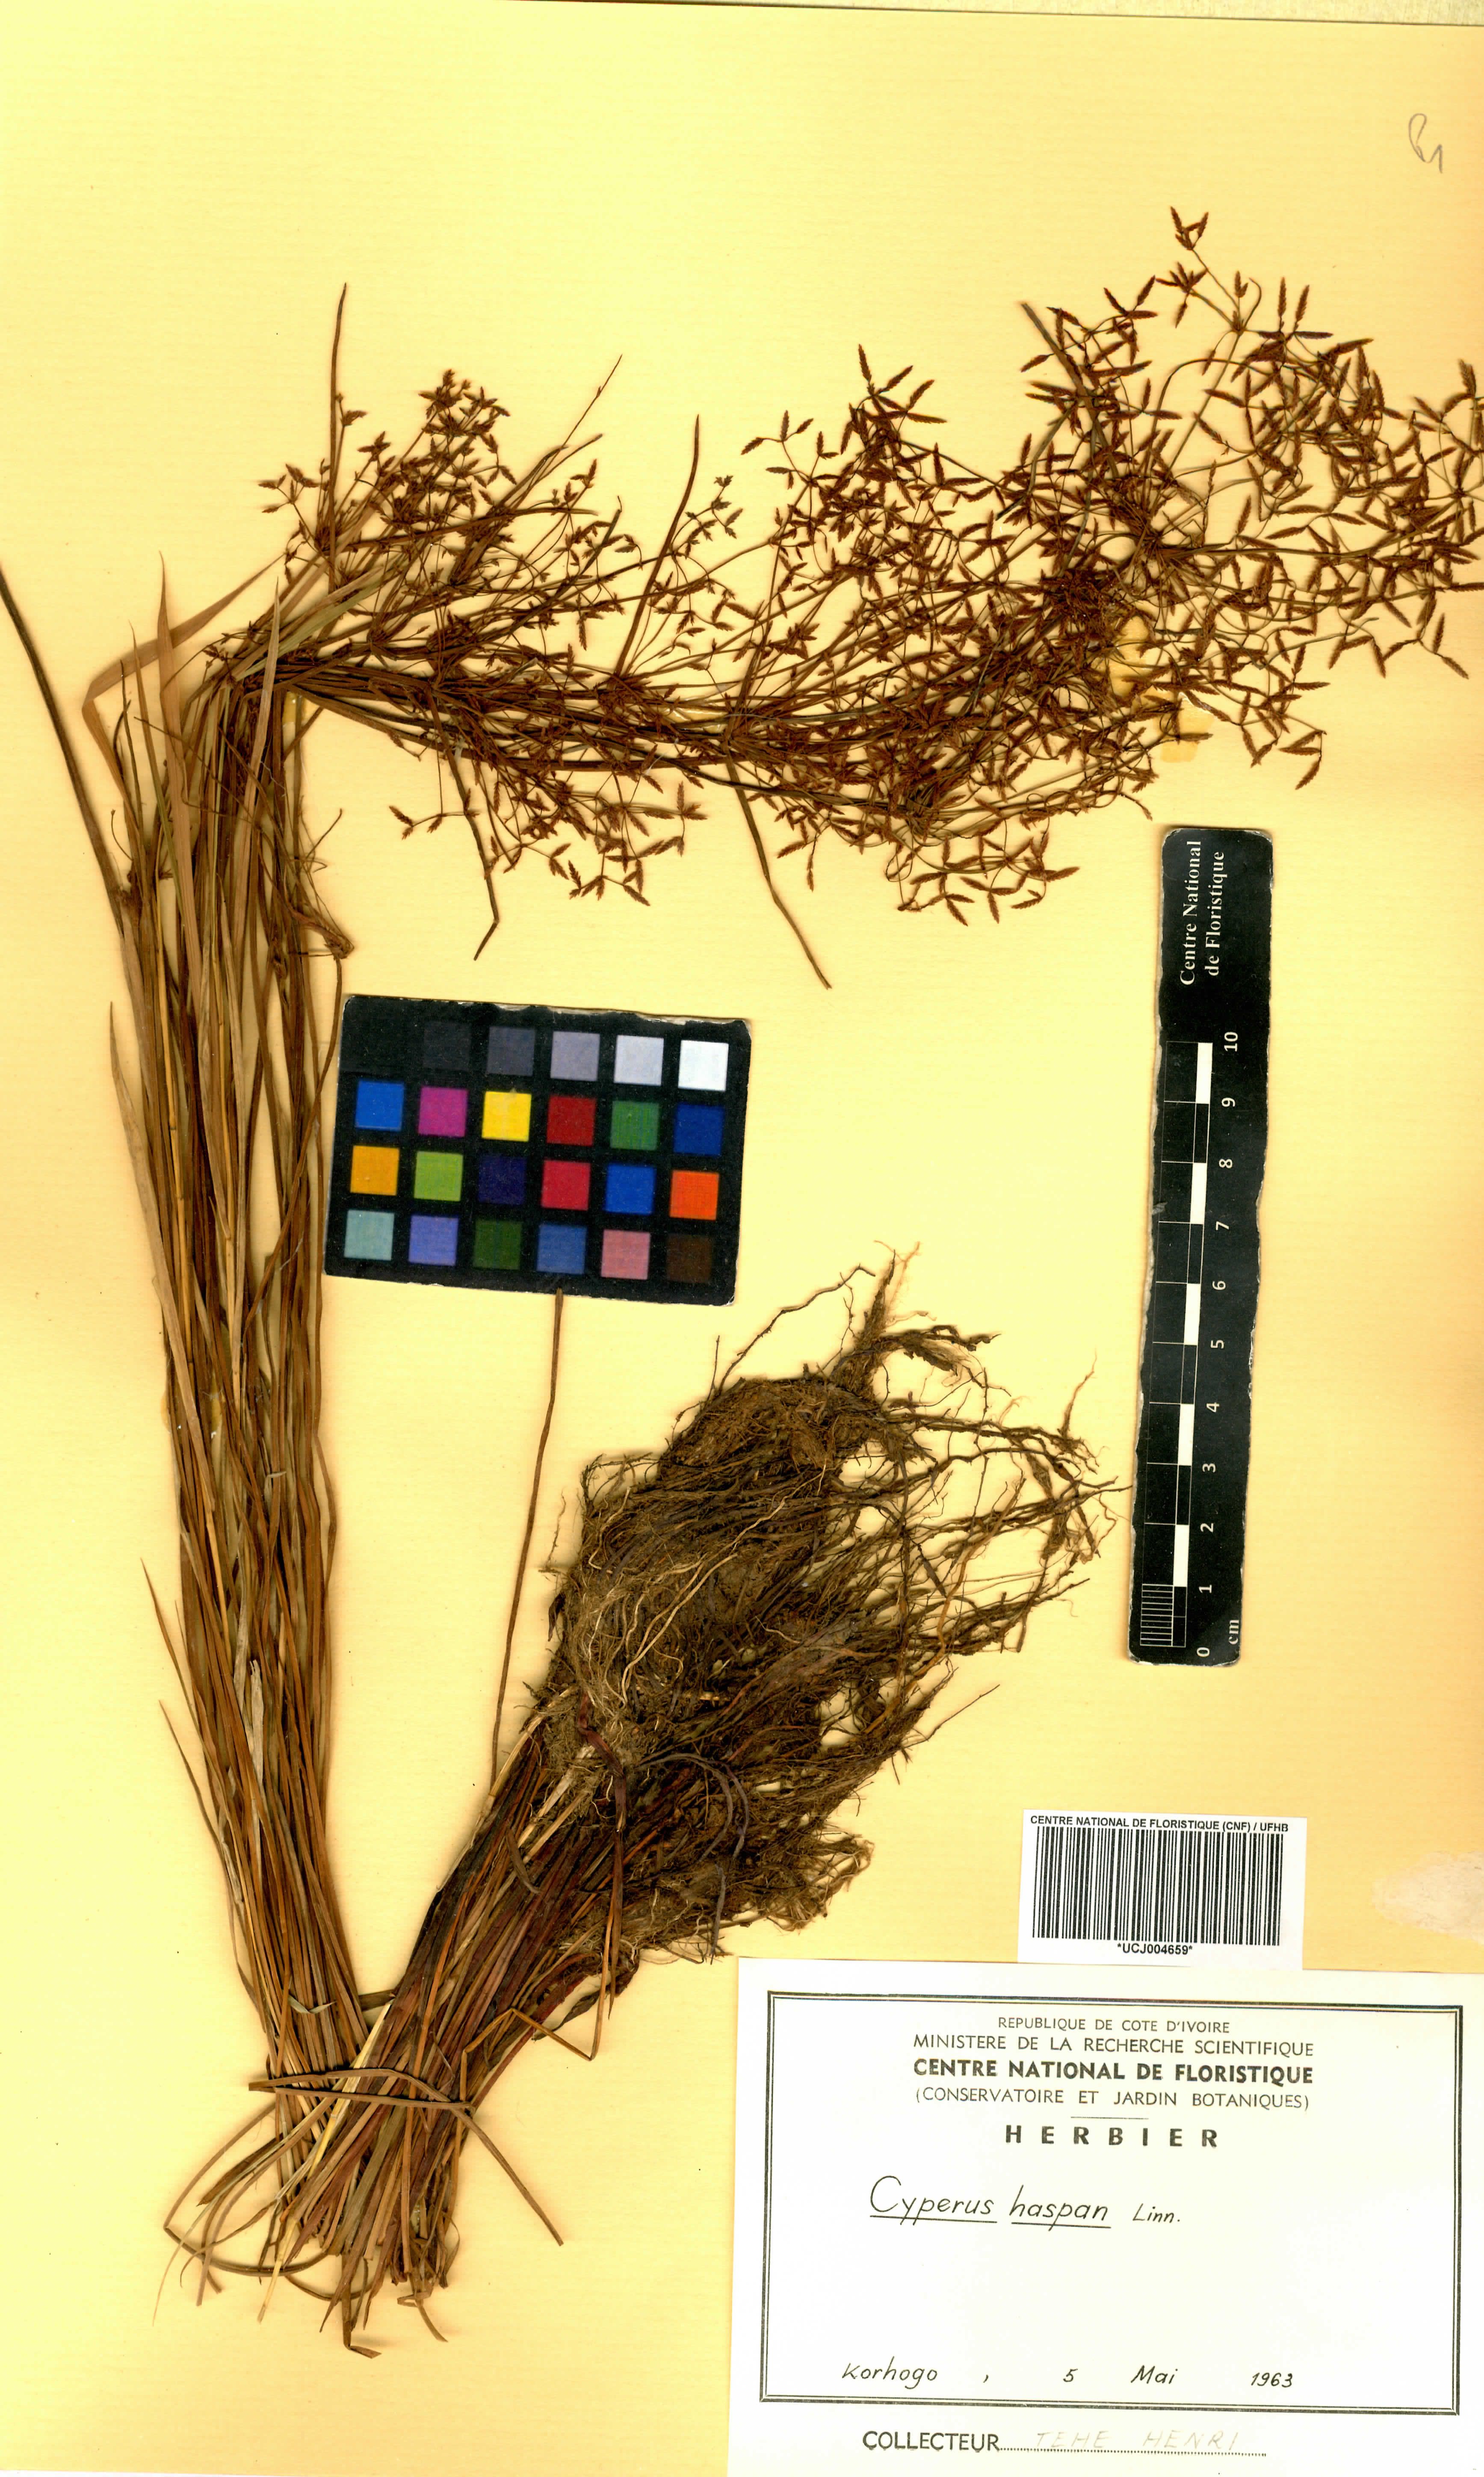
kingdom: Plantae
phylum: Tracheophyta
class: Liliopsida
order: Poales
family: Cyperaceae
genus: Cyperus
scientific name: Cyperus haspan
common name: Haspan flatsedge
